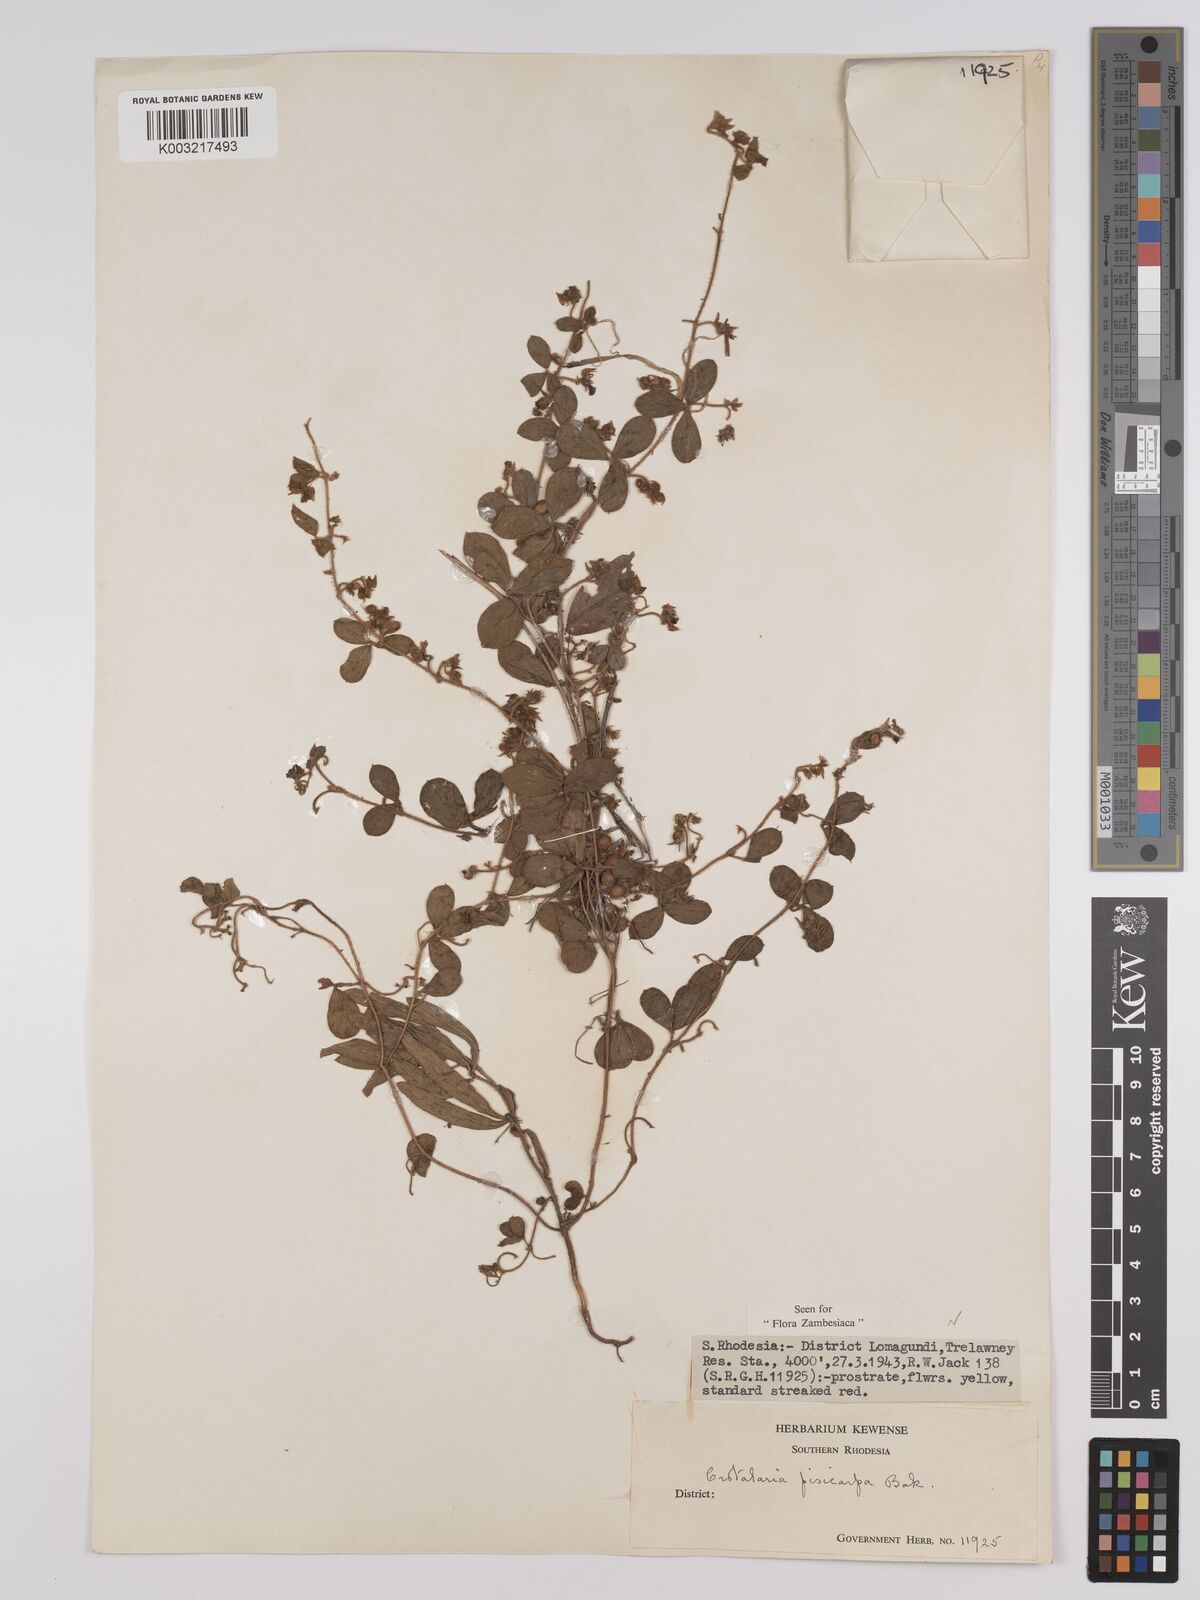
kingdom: Plantae
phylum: Tracheophyta
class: Magnoliopsida
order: Fabales
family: Fabaceae
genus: Crotalaria
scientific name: Crotalaria pisicarpa
